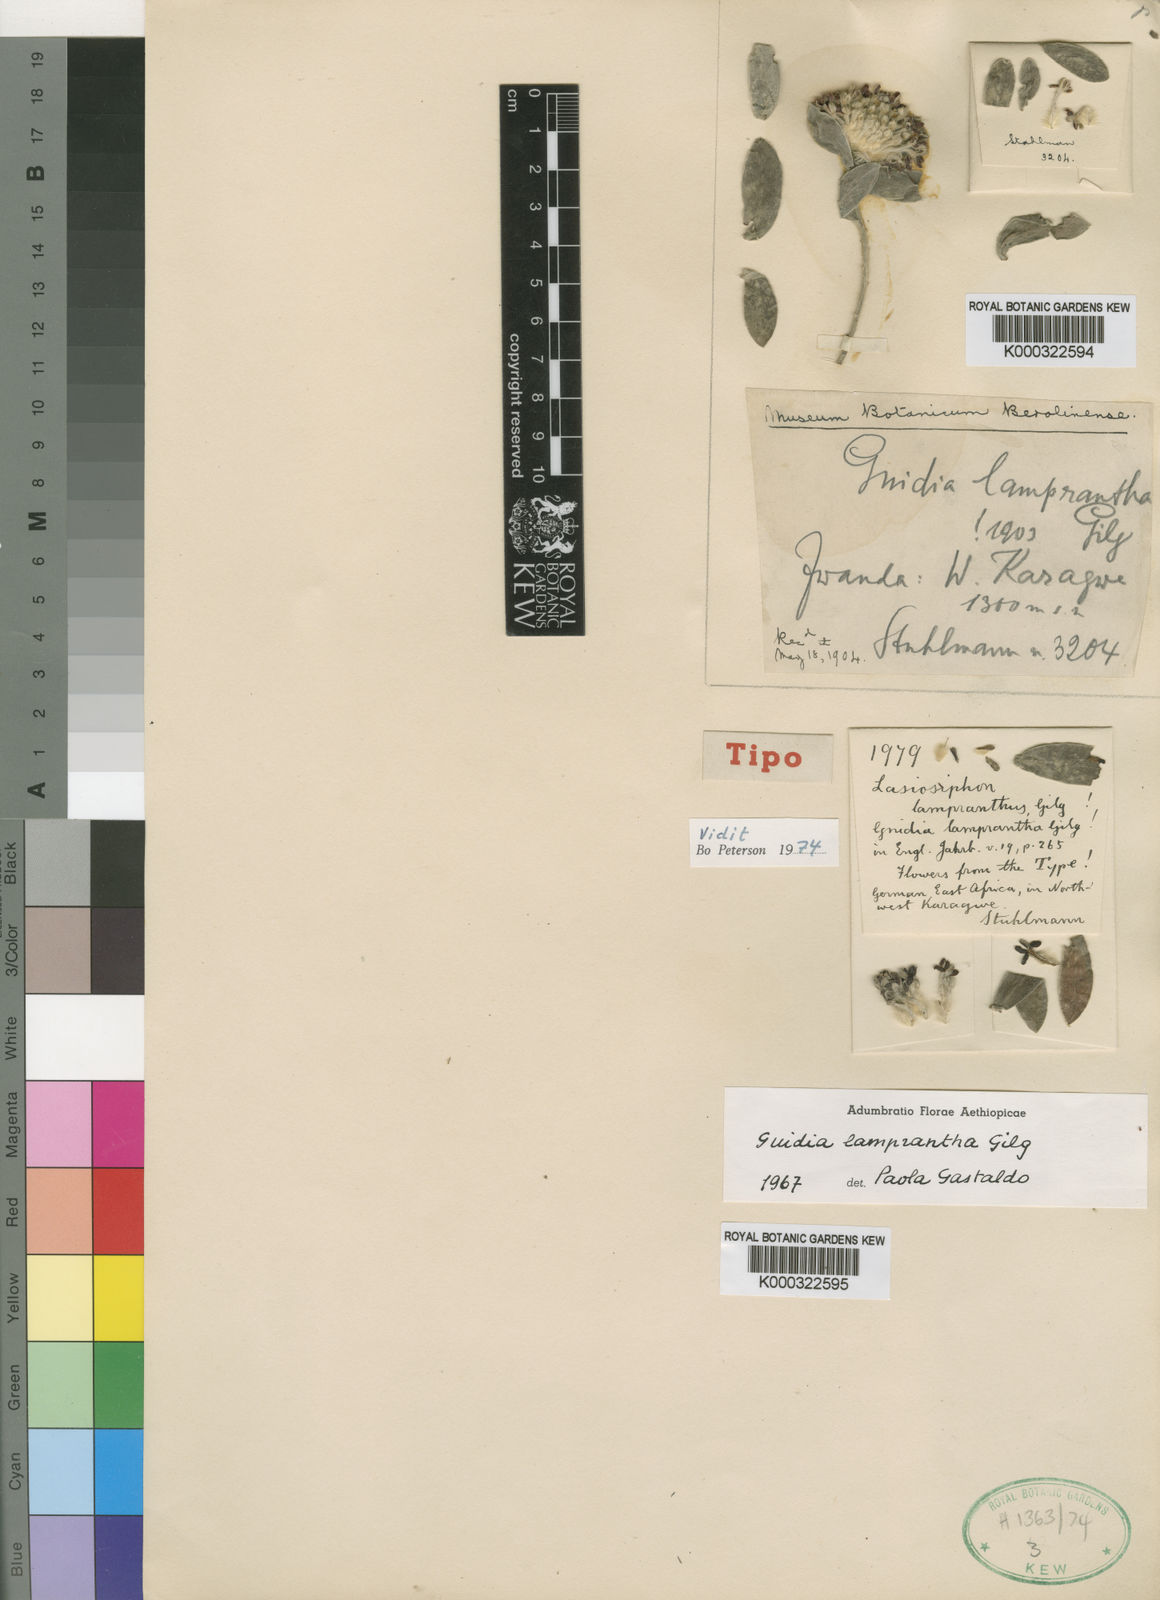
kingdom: Plantae
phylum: Tracheophyta
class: Magnoliopsida
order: Malvales
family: Thymelaeaceae
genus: Gnidia
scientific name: Gnidia lamprantha
